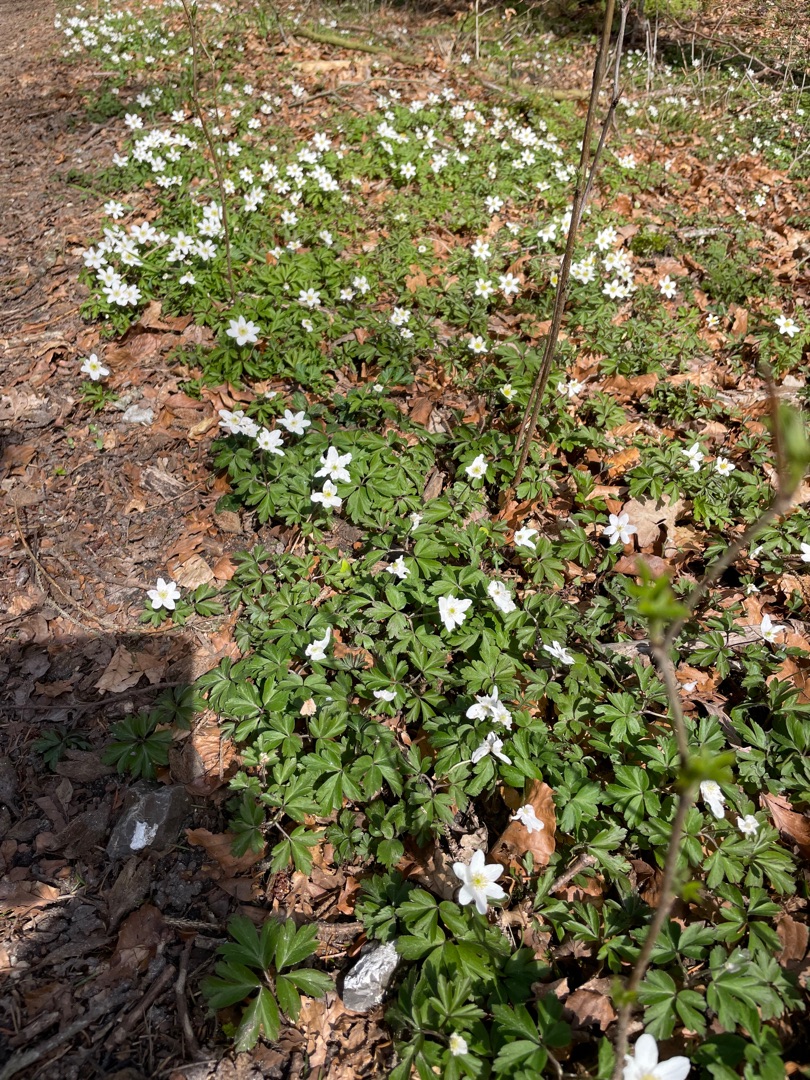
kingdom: Plantae
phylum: Tracheophyta
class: Magnoliopsida
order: Ranunculales
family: Ranunculaceae
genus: Anemone
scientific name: Anemone nemorosa
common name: Hvid anemone
